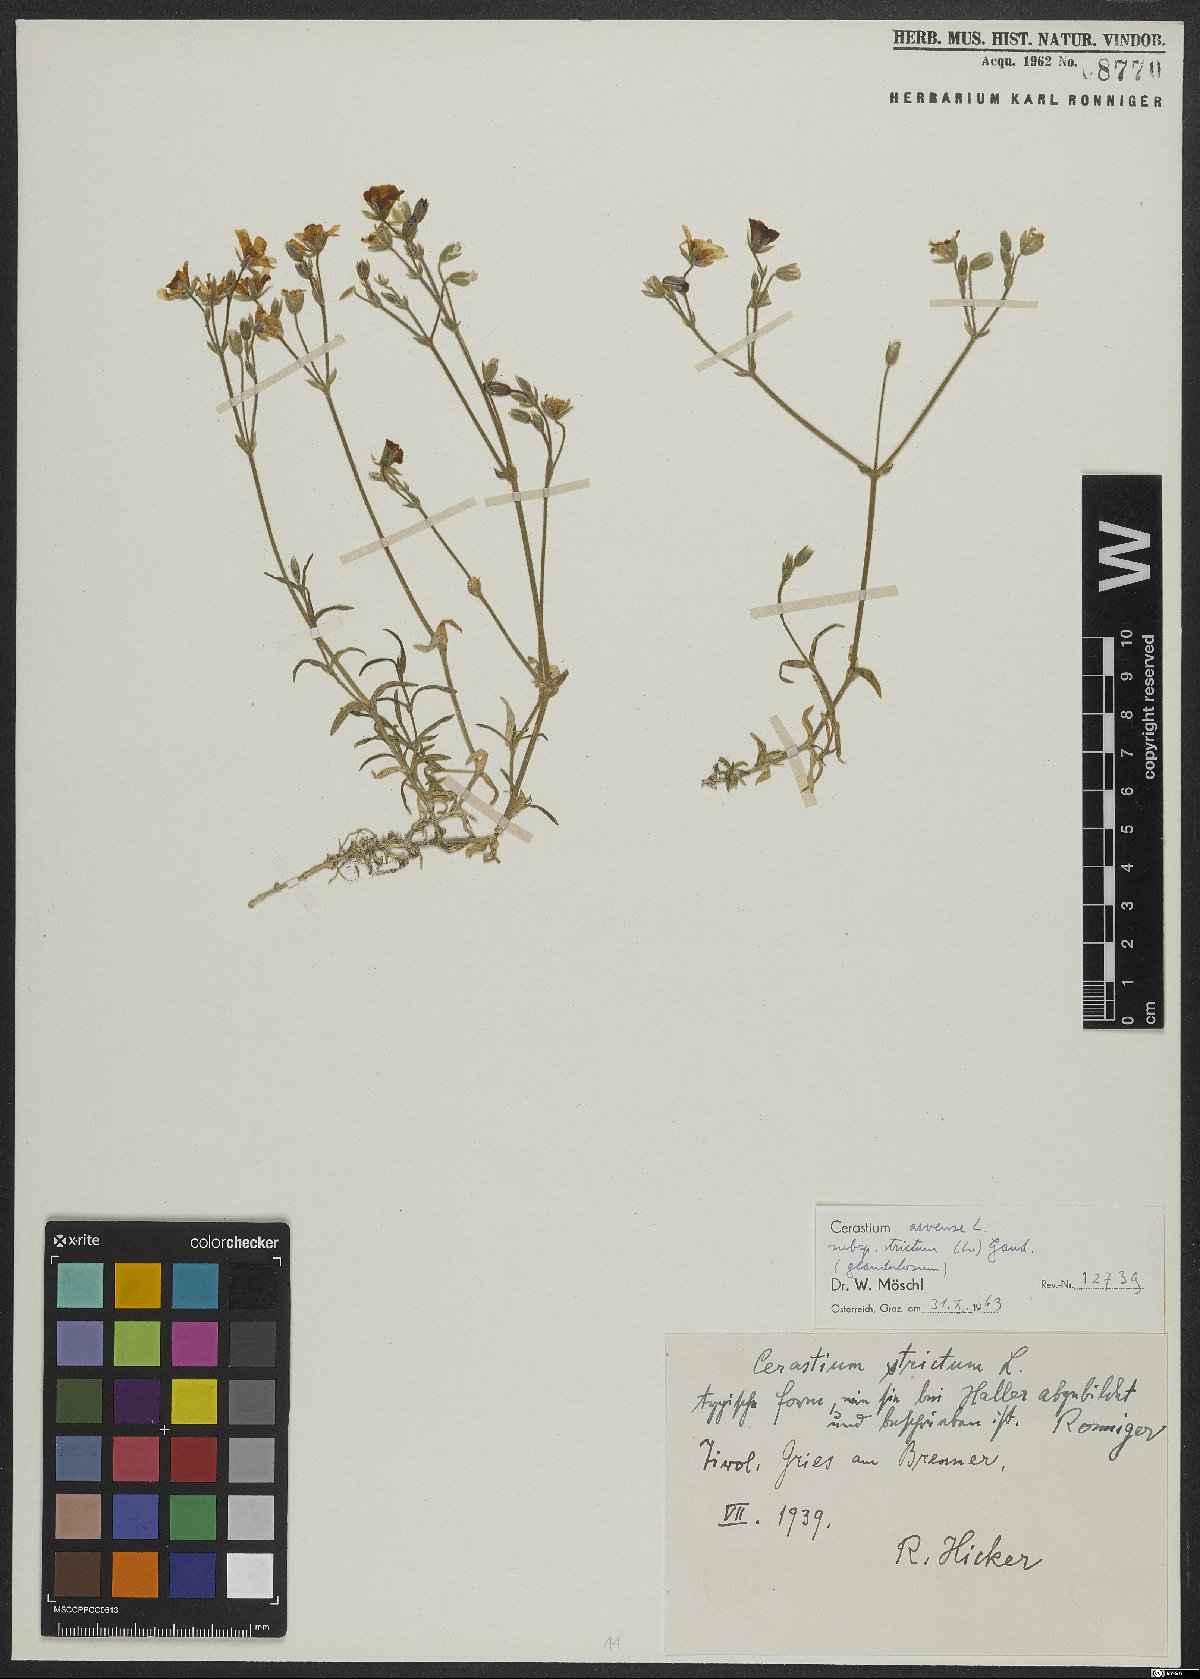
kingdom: Plantae
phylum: Tracheophyta
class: Magnoliopsida
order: Caryophyllales
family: Caryophyllaceae
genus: Cerastium
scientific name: Cerastium elongatum
